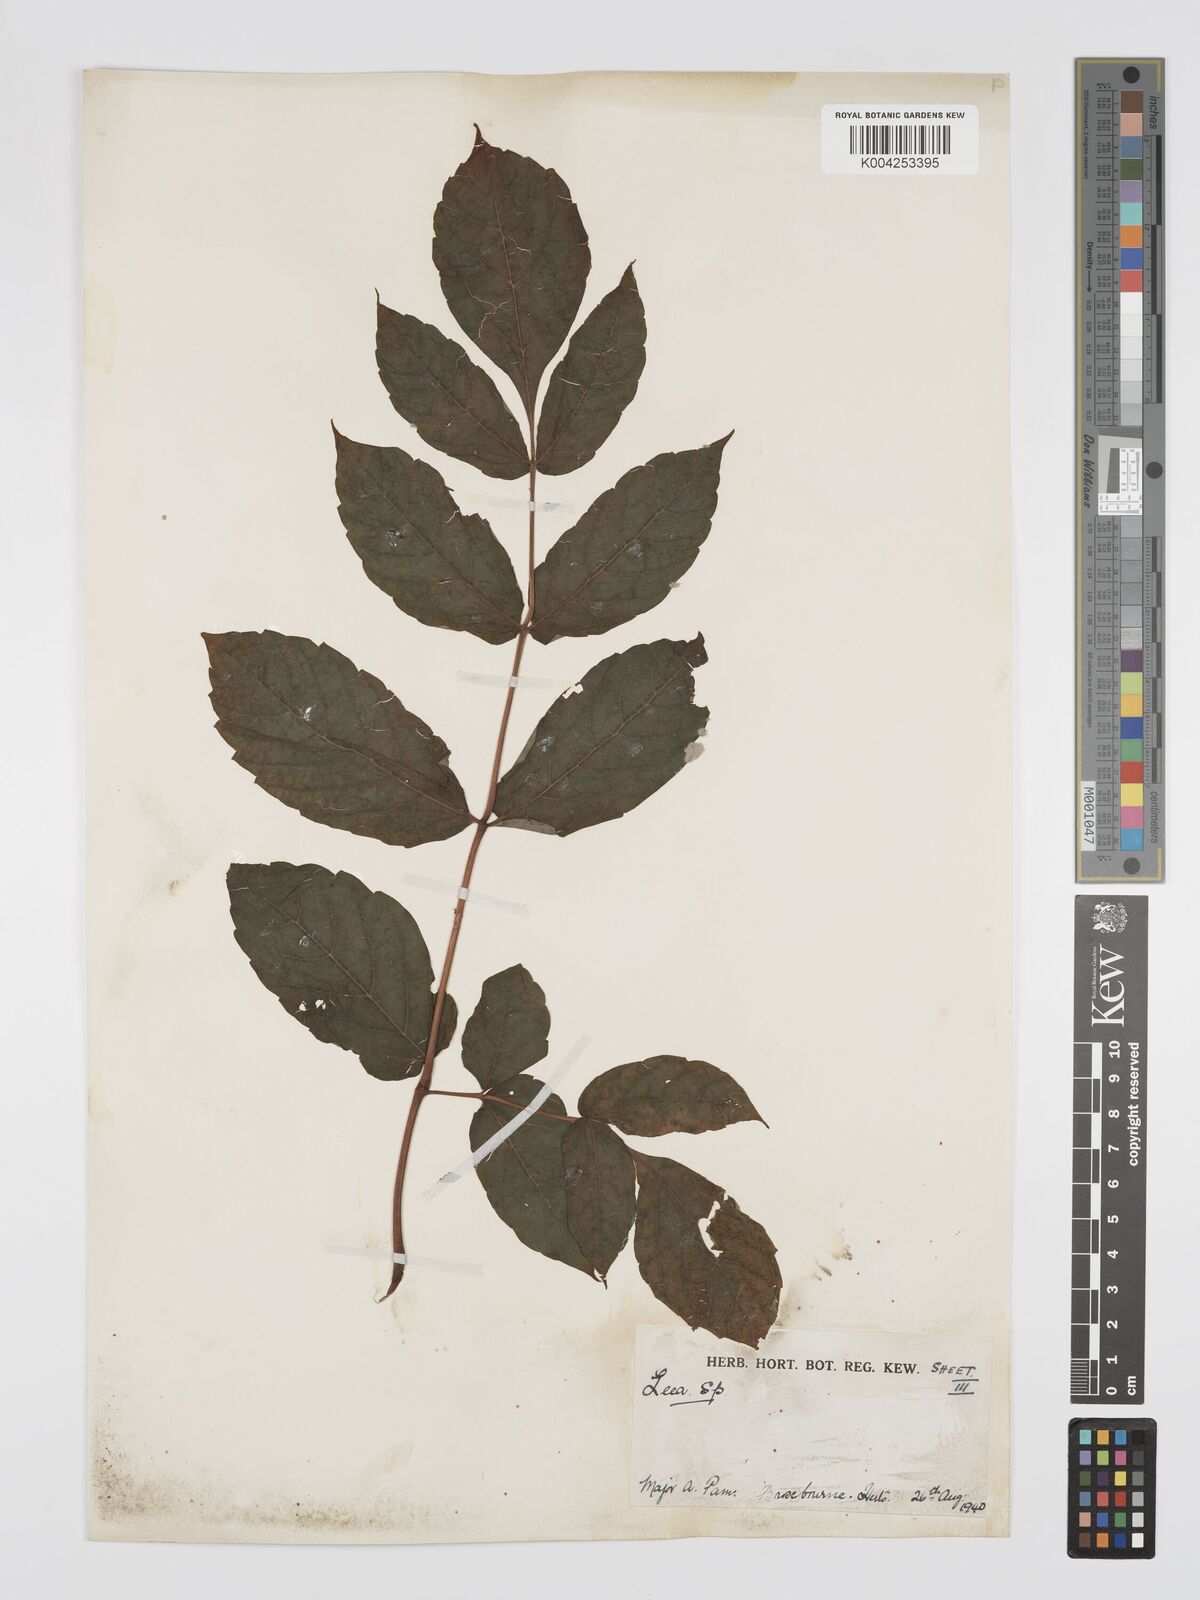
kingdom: Plantae
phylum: Tracheophyta
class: Magnoliopsida
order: Vitales
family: Vitaceae
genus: Leea
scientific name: Leea
